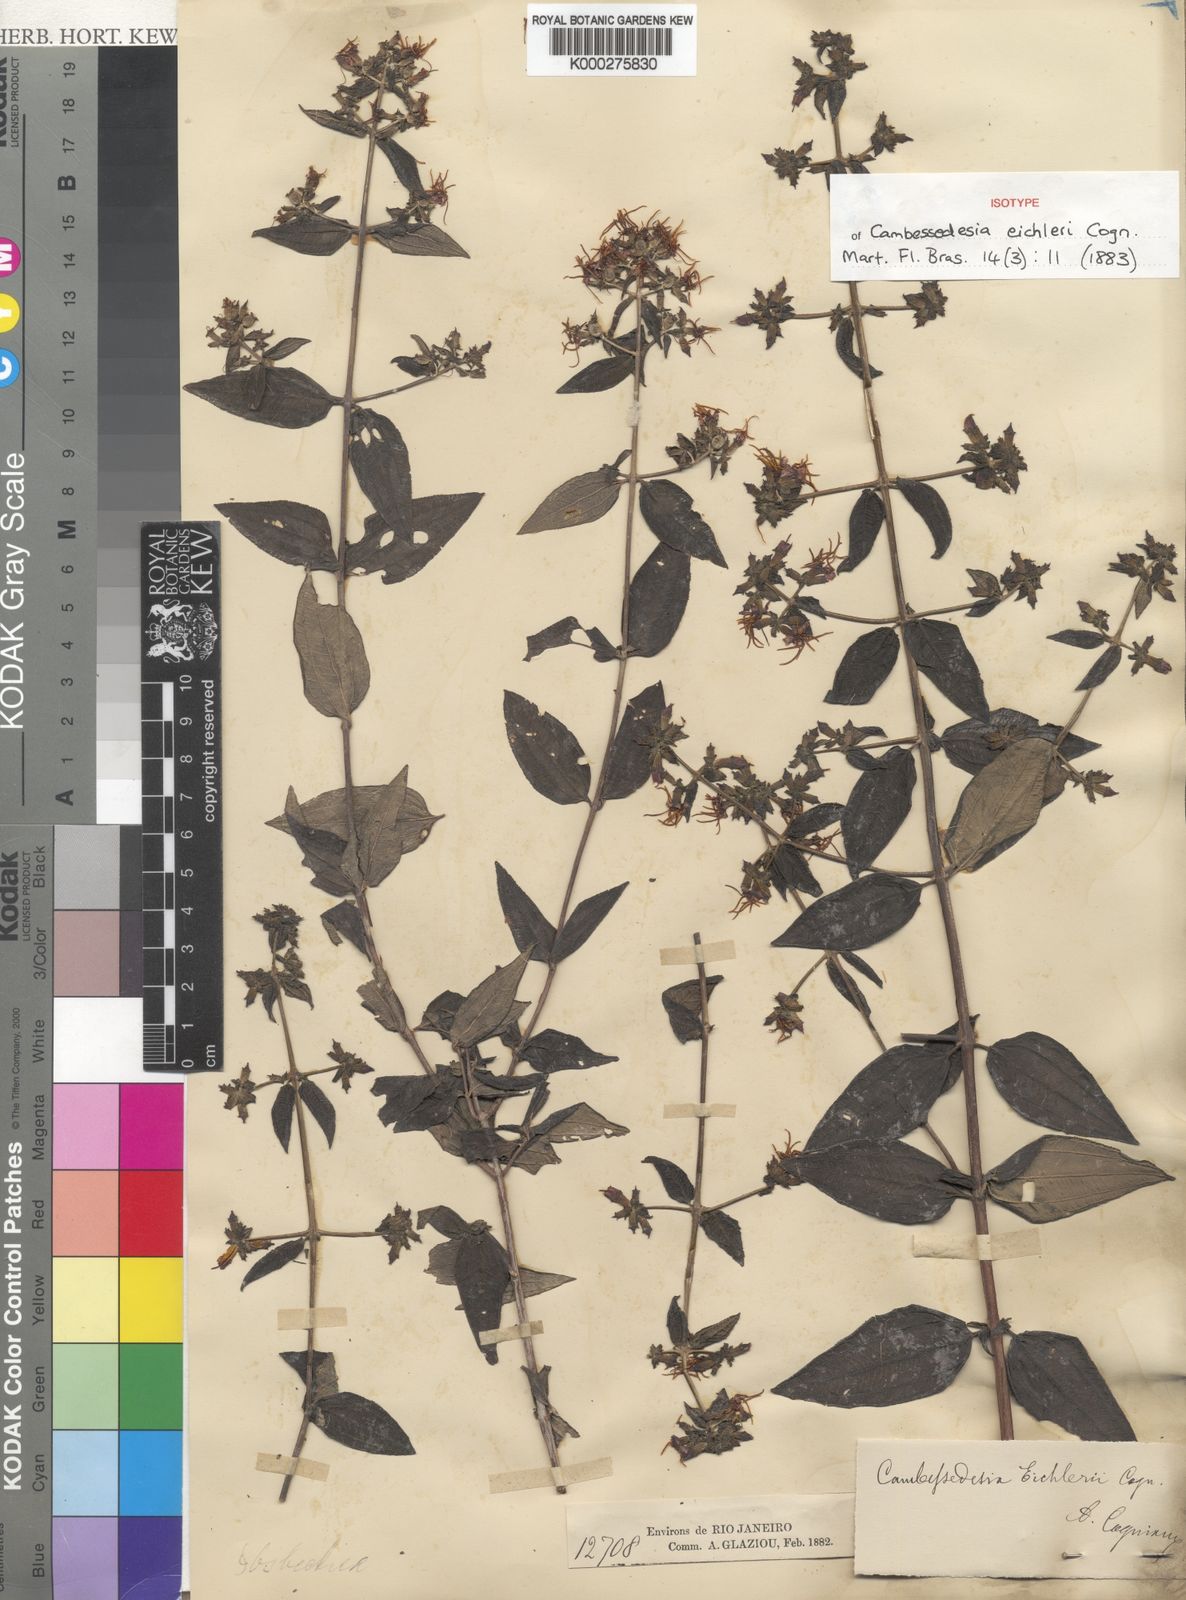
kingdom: Plantae
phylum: Tracheophyta
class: Magnoliopsida
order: Myrtales
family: Melastomataceae
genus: Cambessedesia
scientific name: Cambessedesia eichleri
